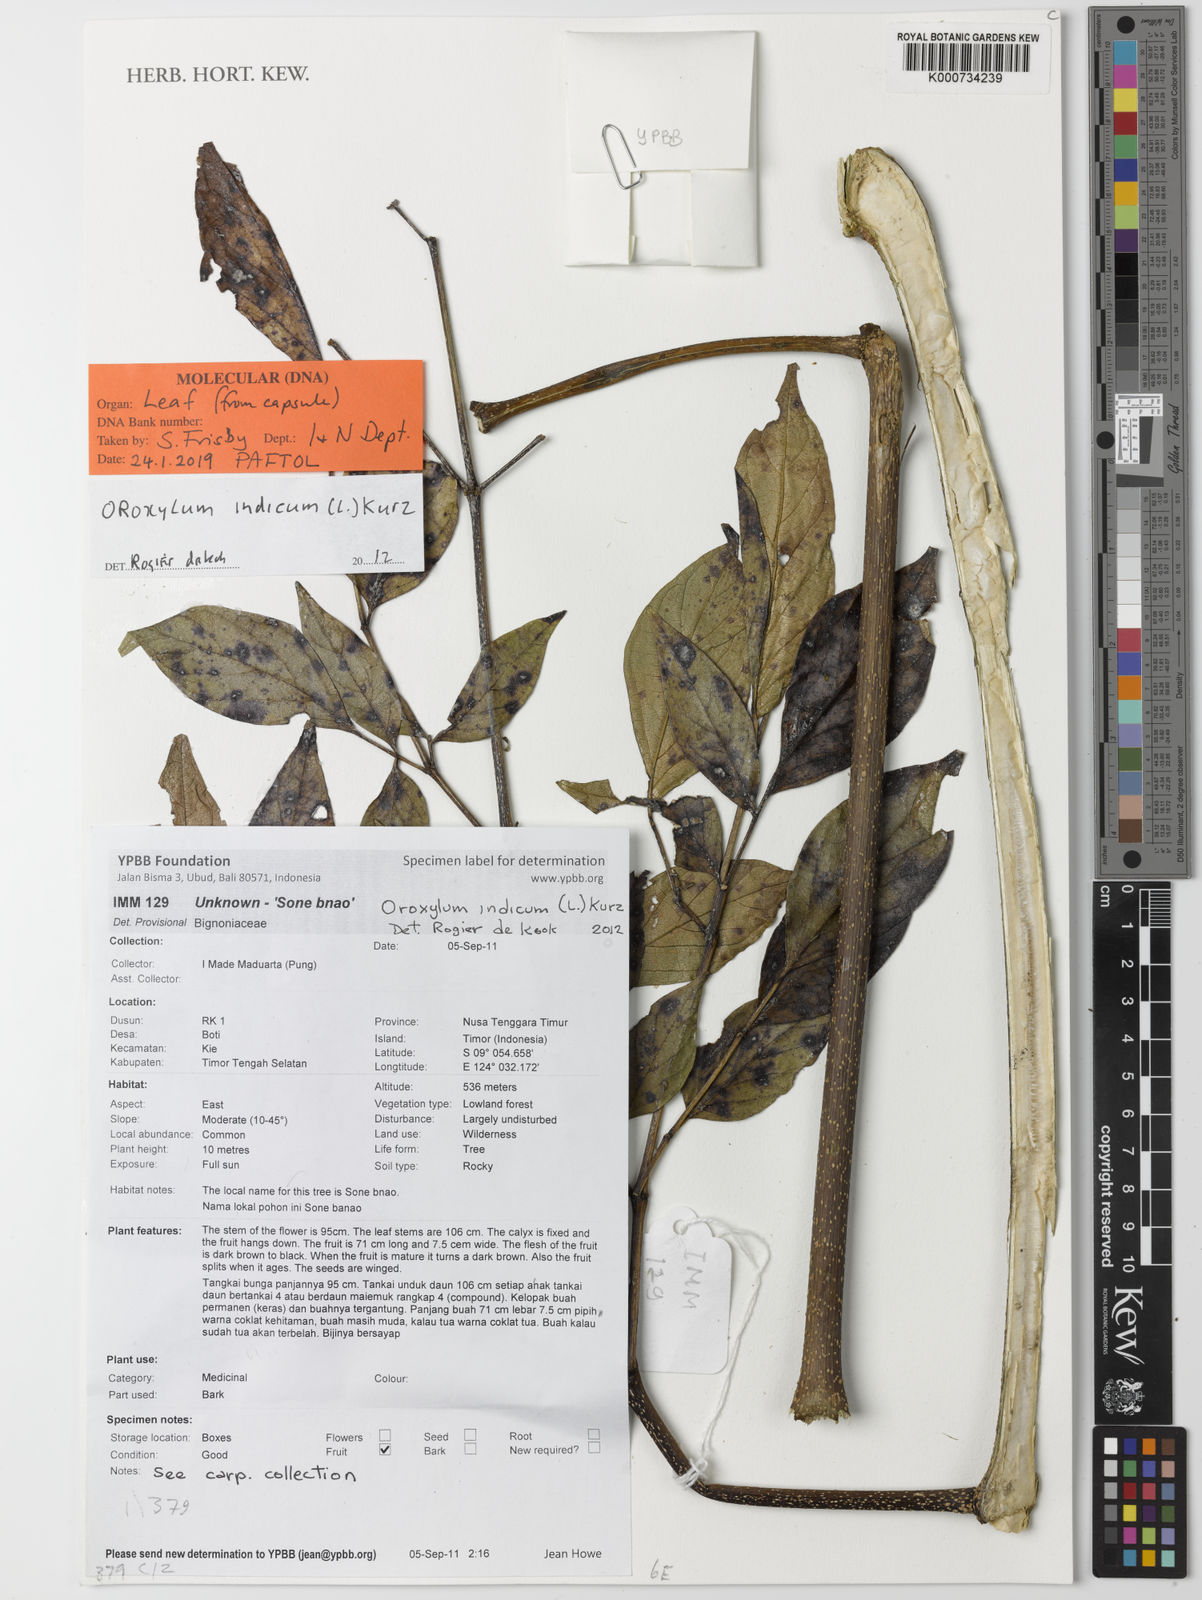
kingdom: Plantae
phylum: Tracheophyta
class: Magnoliopsida
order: Lamiales
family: Bignoniaceae
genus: Oroxylum
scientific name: Oroxylum indicum
